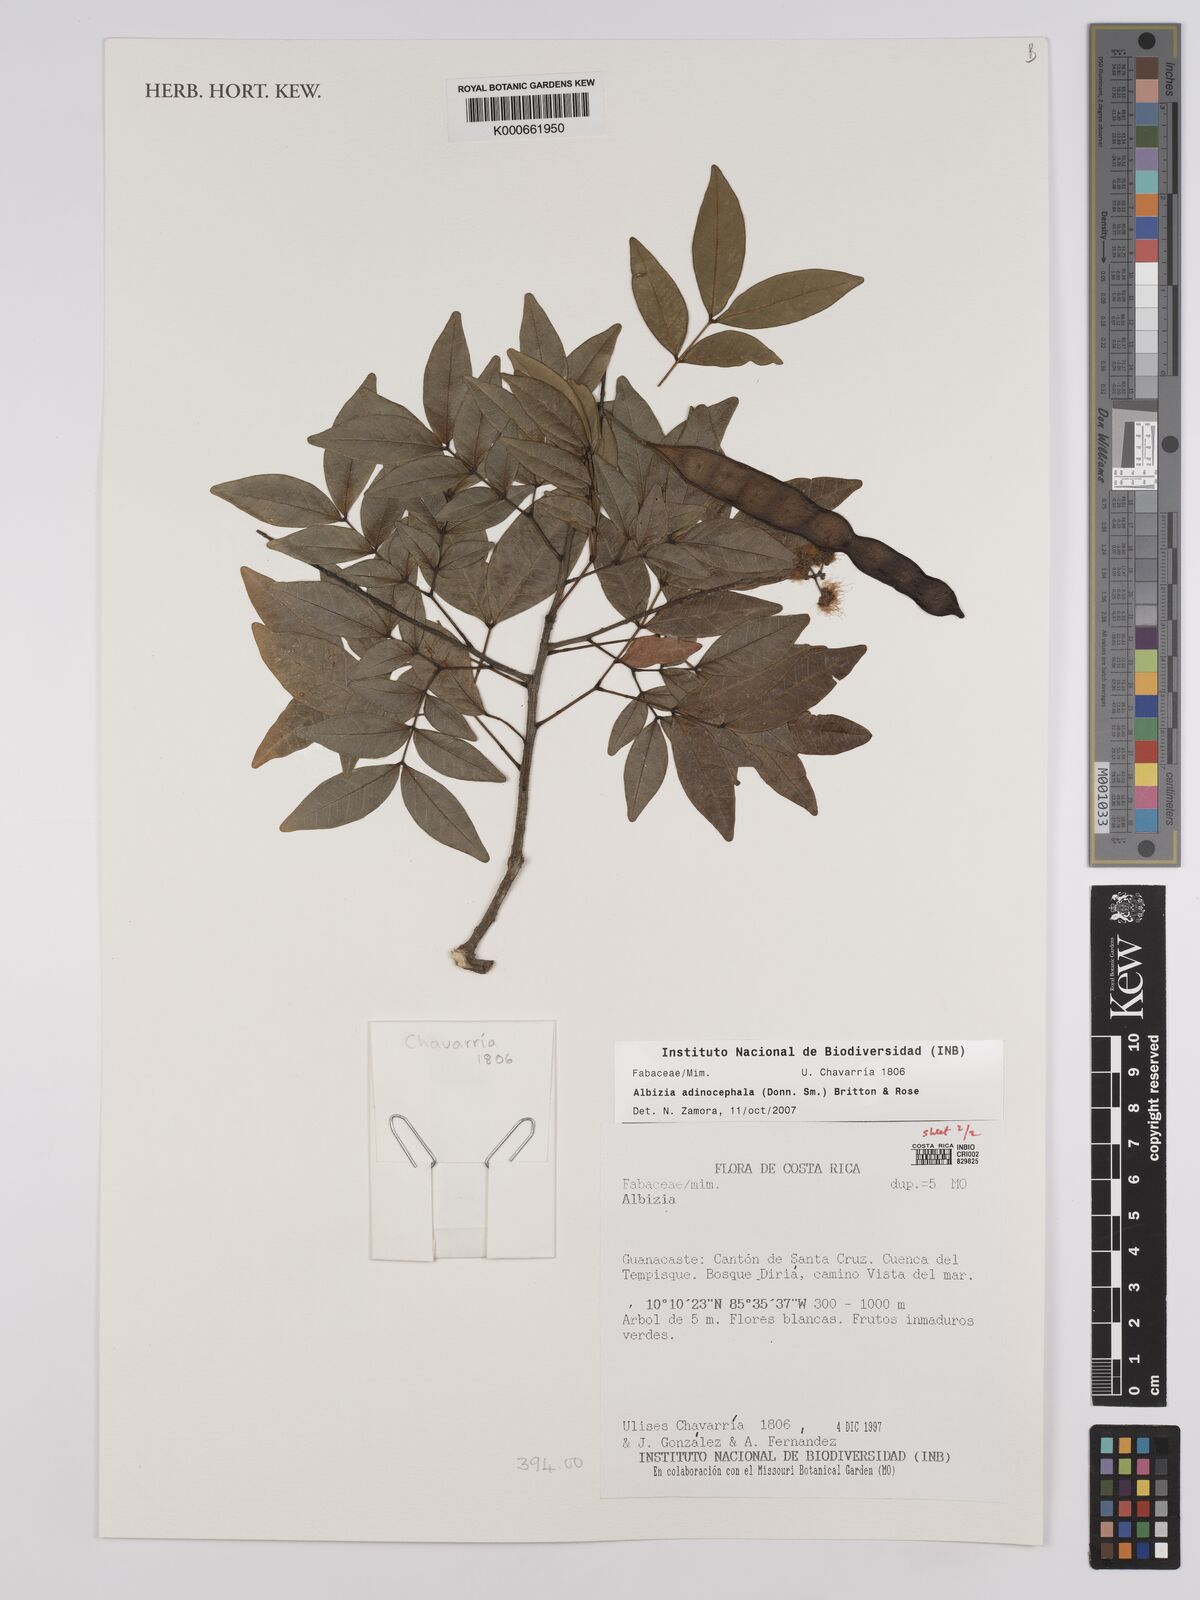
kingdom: Plantae
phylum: Tracheophyta
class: Magnoliopsida
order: Fabales
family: Fabaceae
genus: Albizia
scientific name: Albizia
